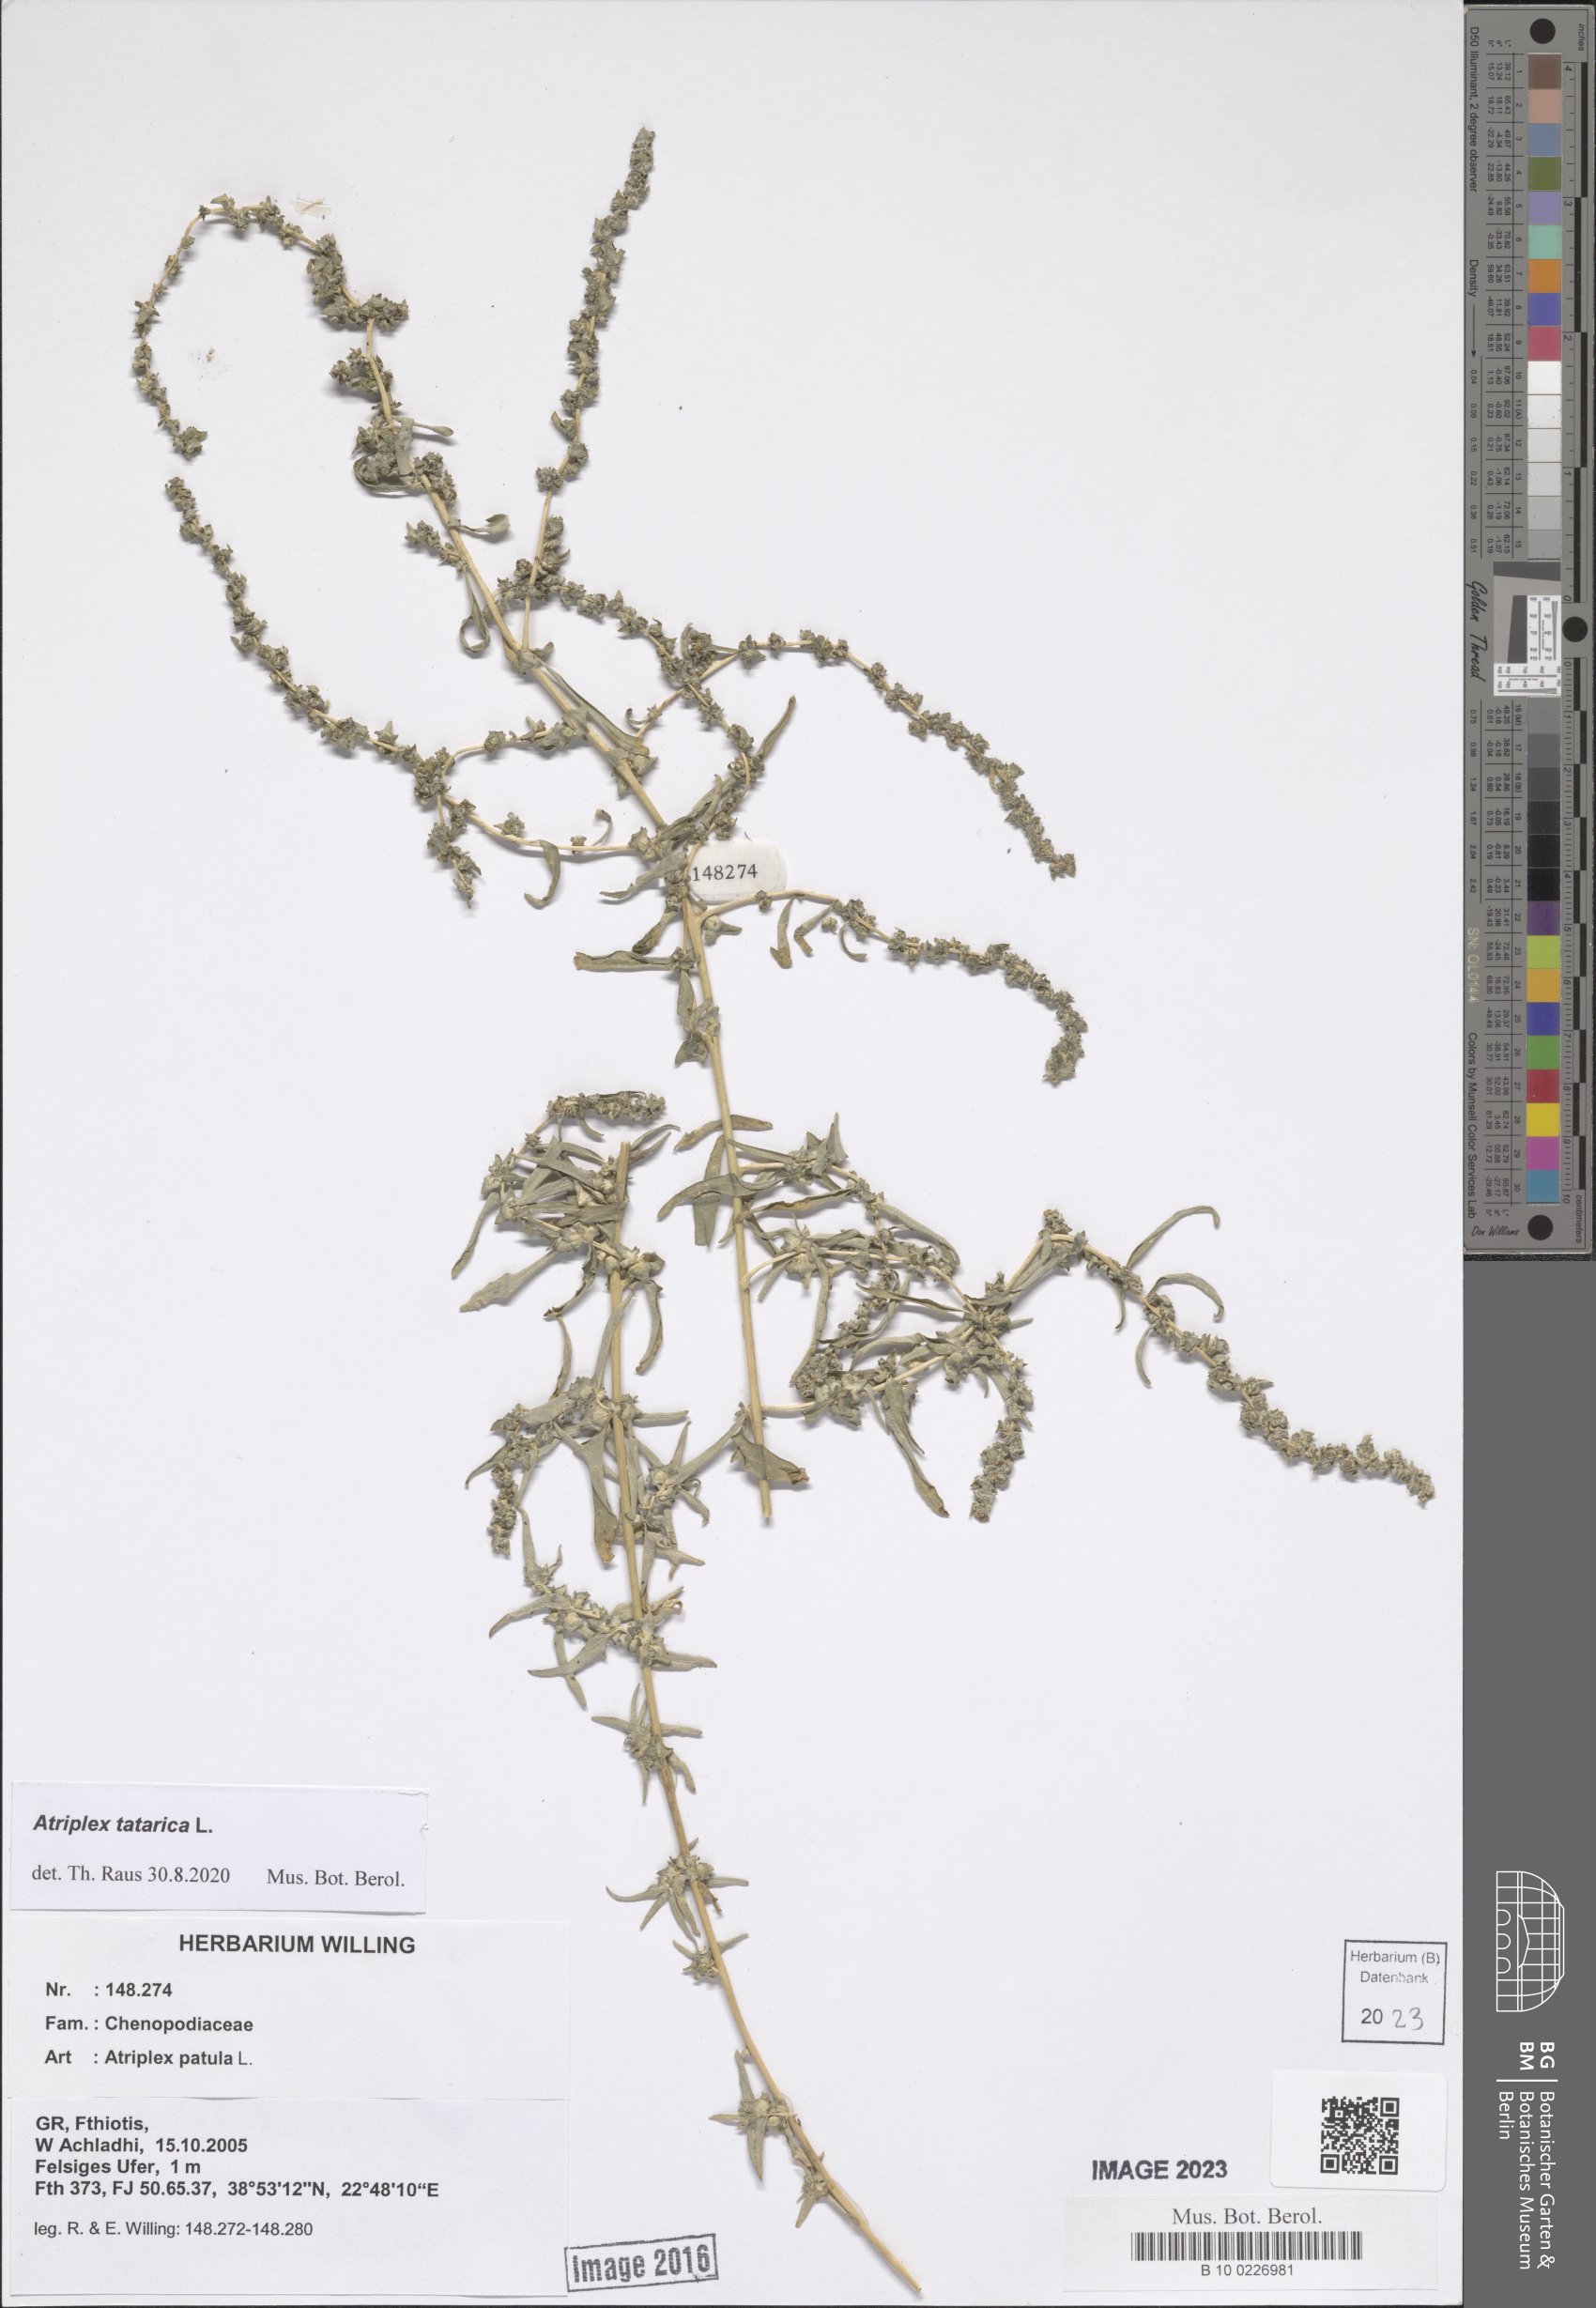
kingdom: Plantae
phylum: Tracheophyta
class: Magnoliopsida
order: Caryophyllales
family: Amaranthaceae
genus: Atriplex
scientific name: Atriplex tatarica
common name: Tatarian orache
